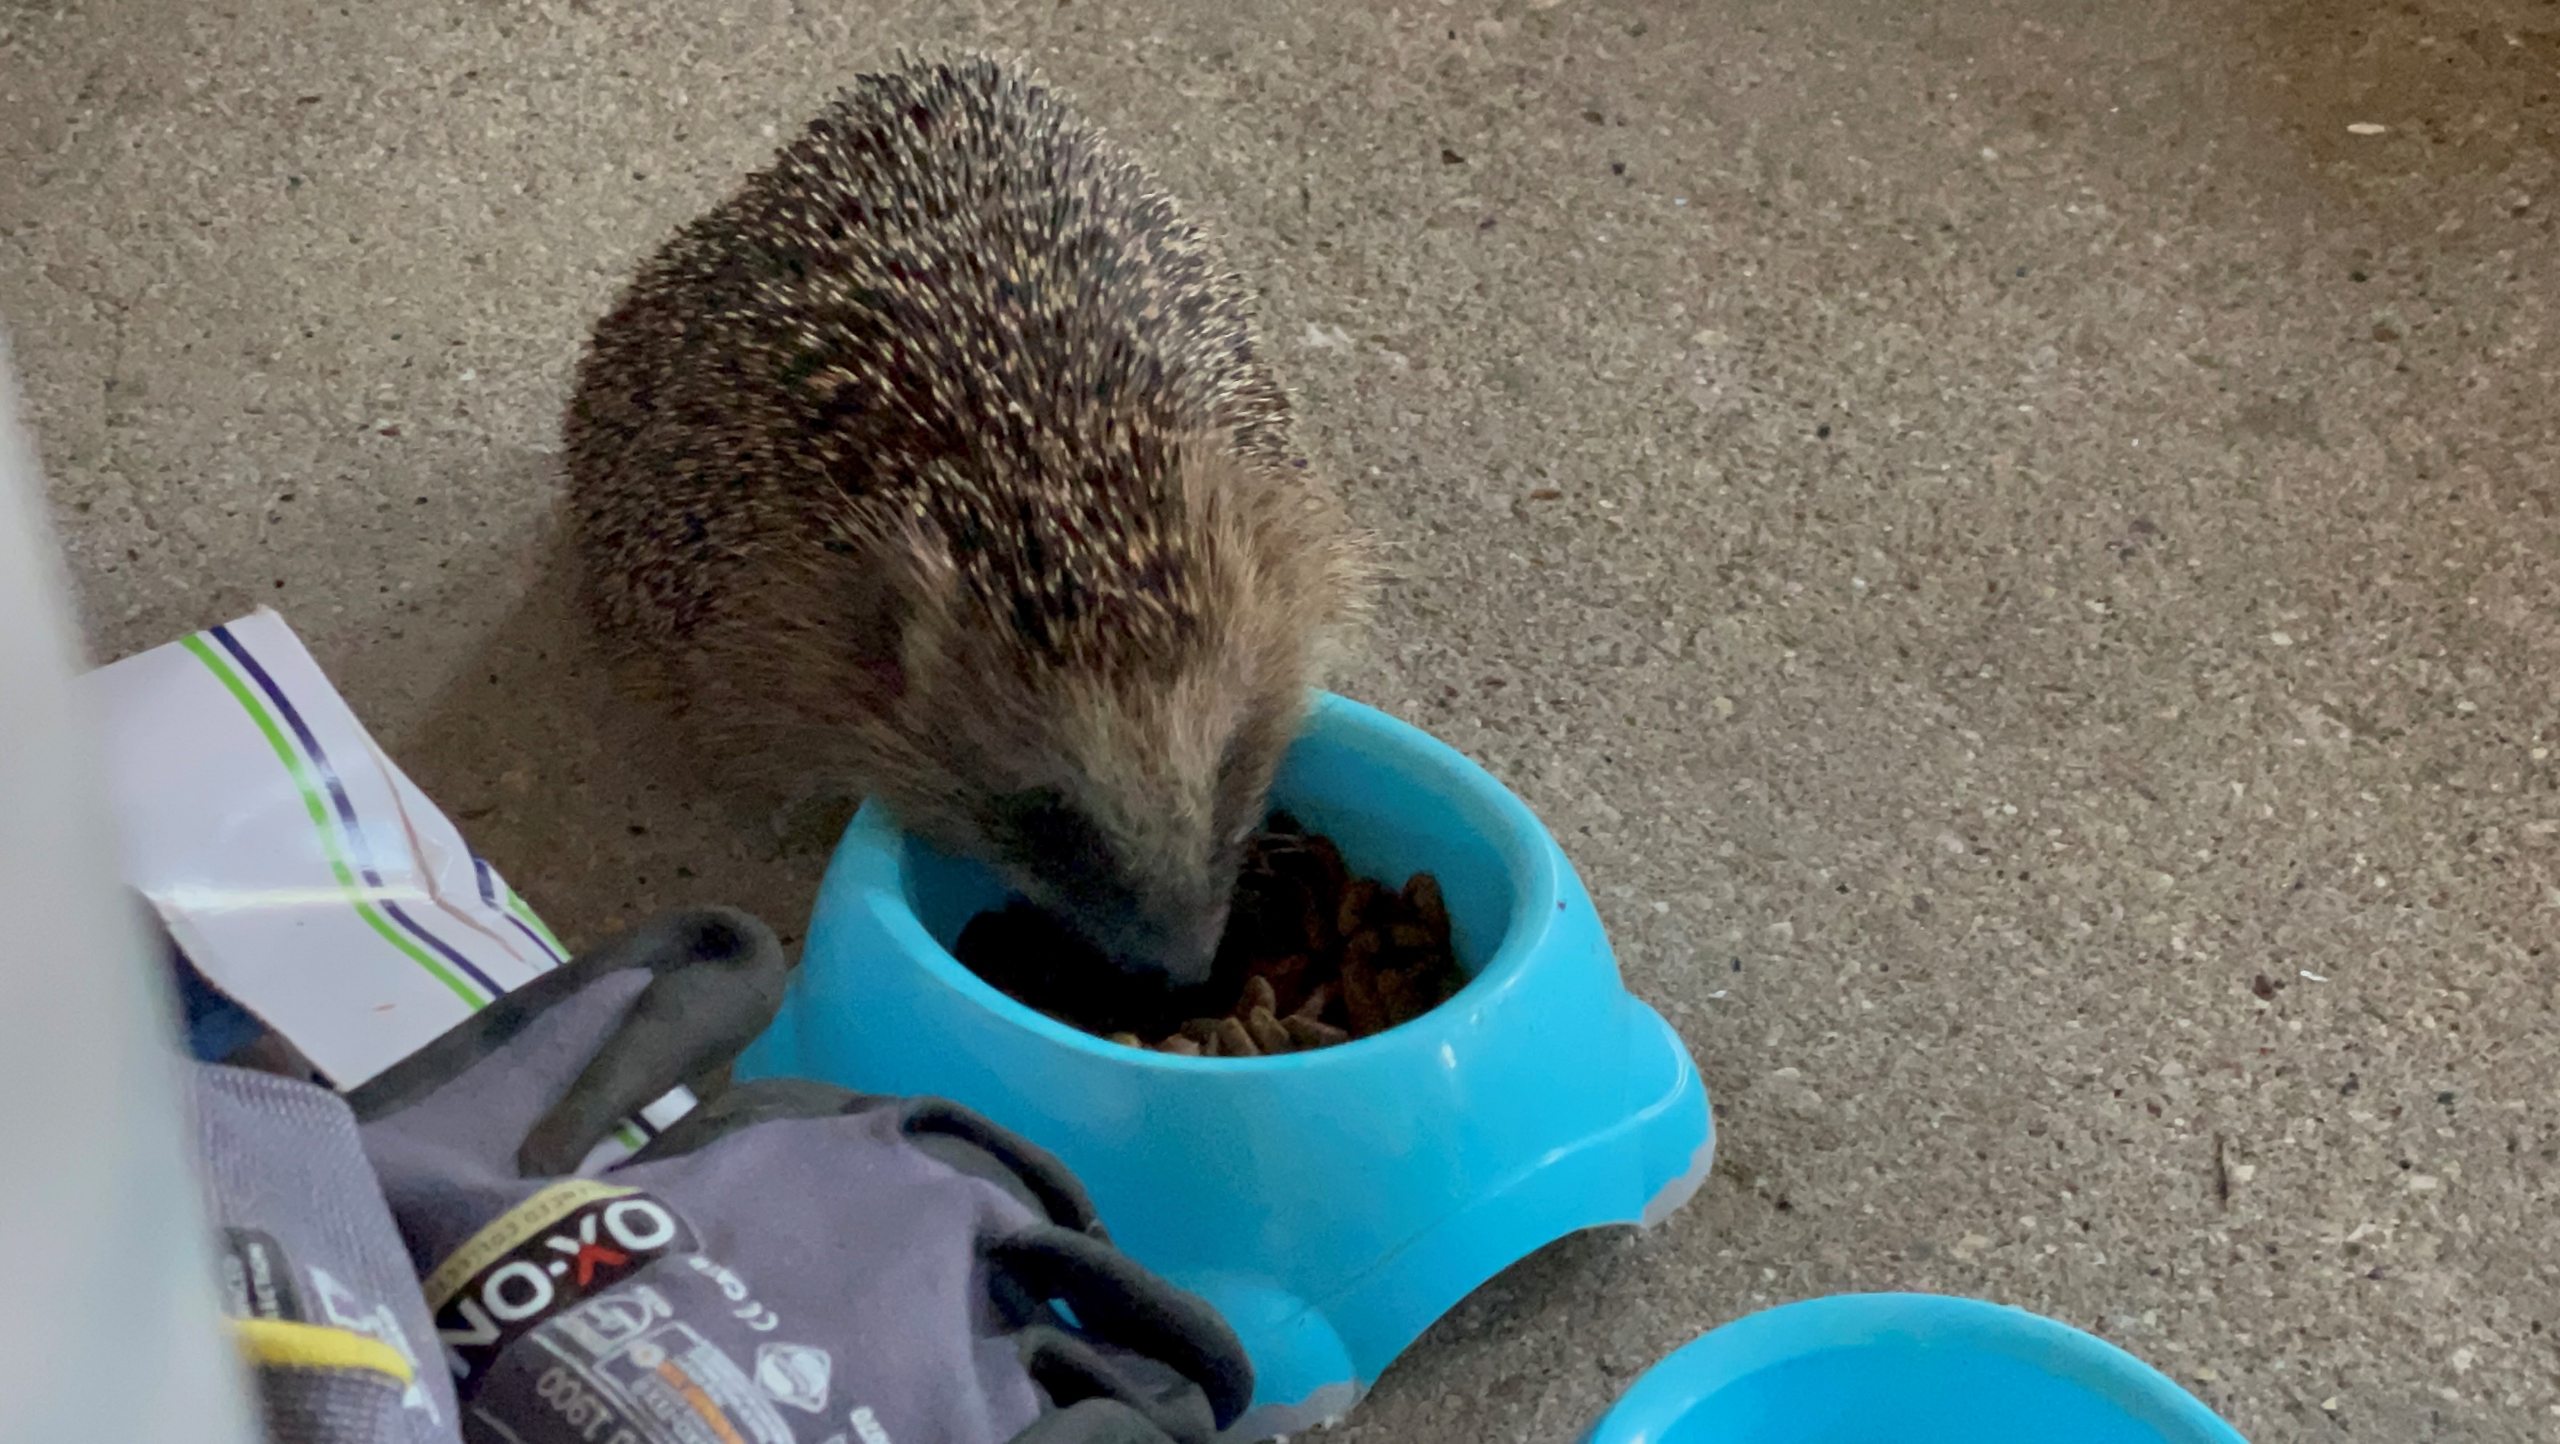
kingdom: Animalia
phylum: Chordata
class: Mammalia
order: Erinaceomorpha
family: Erinaceidae
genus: Erinaceus
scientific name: Erinaceus europaeus
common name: Pindsvin
